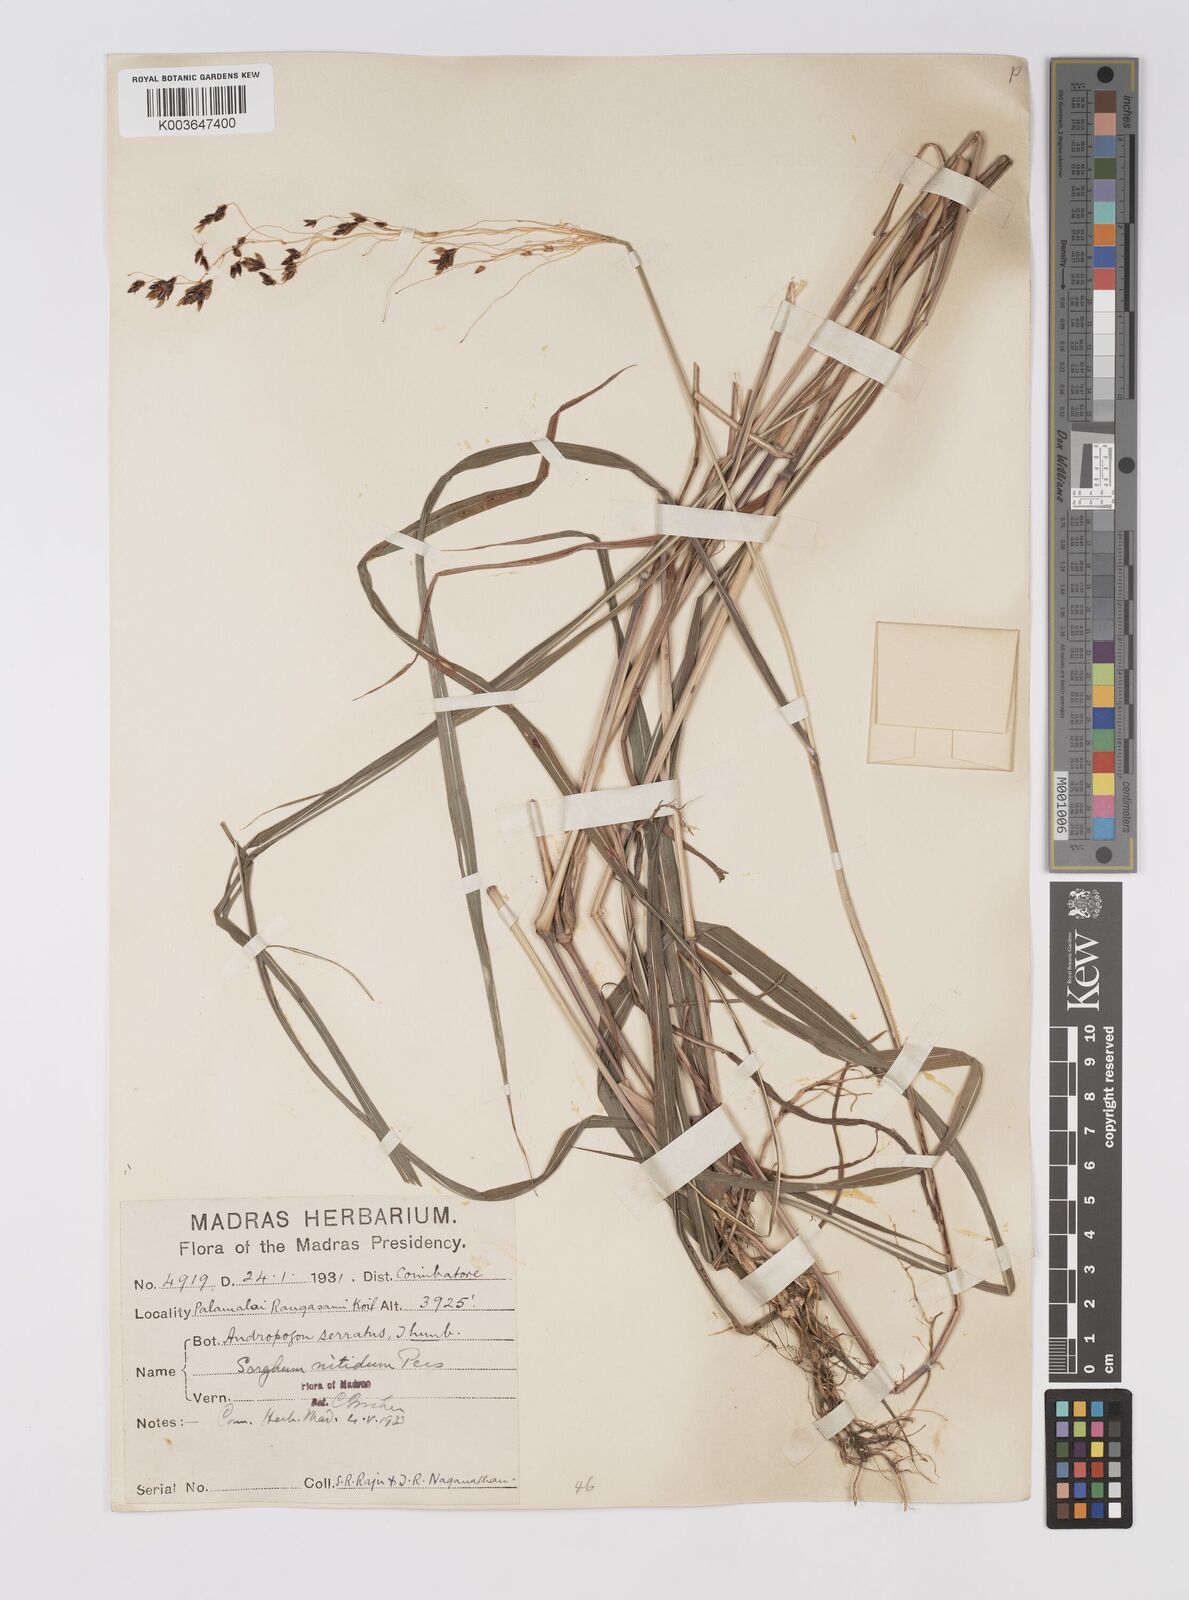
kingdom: Plantae
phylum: Tracheophyta
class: Liliopsida
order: Poales
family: Poaceae
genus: Sorghum
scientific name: Sorghum nitidum
